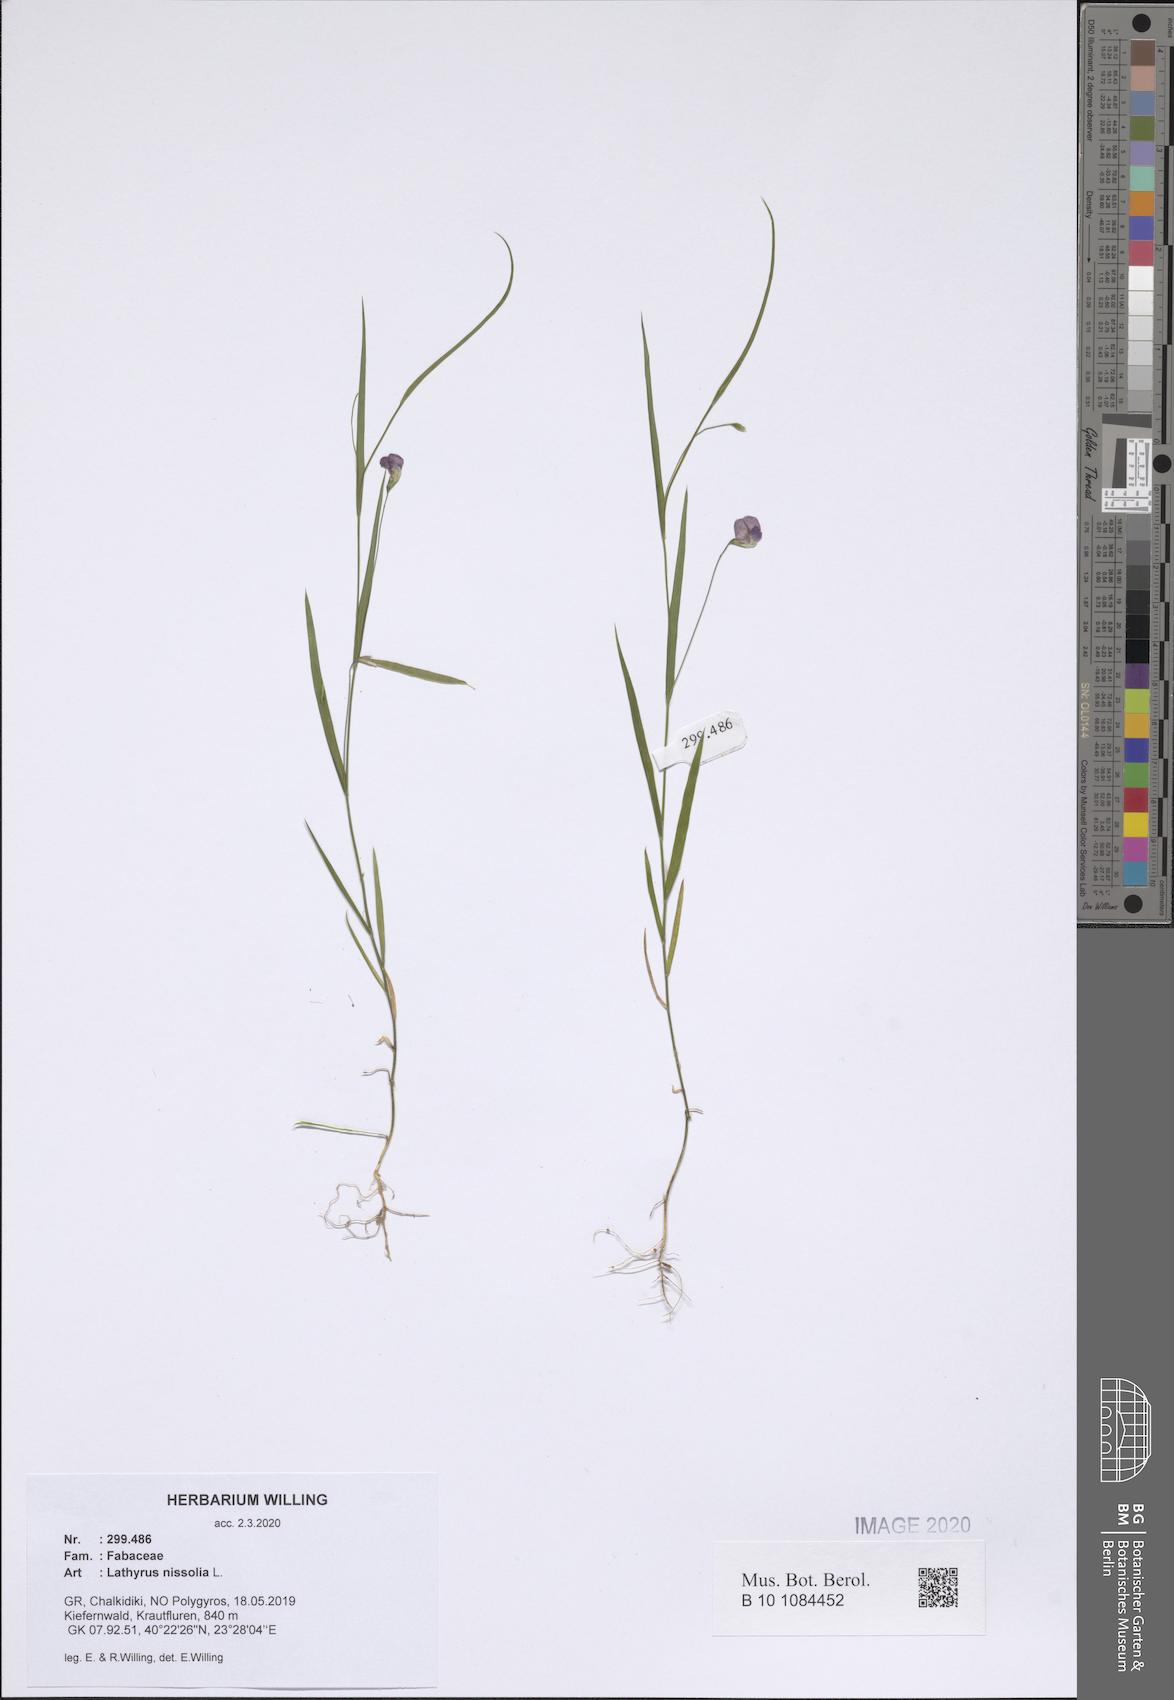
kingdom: Plantae
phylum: Tracheophyta
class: Magnoliopsida
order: Fabales
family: Fabaceae
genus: Lathyrus
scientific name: Lathyrus nissolia
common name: Grass vetchling
